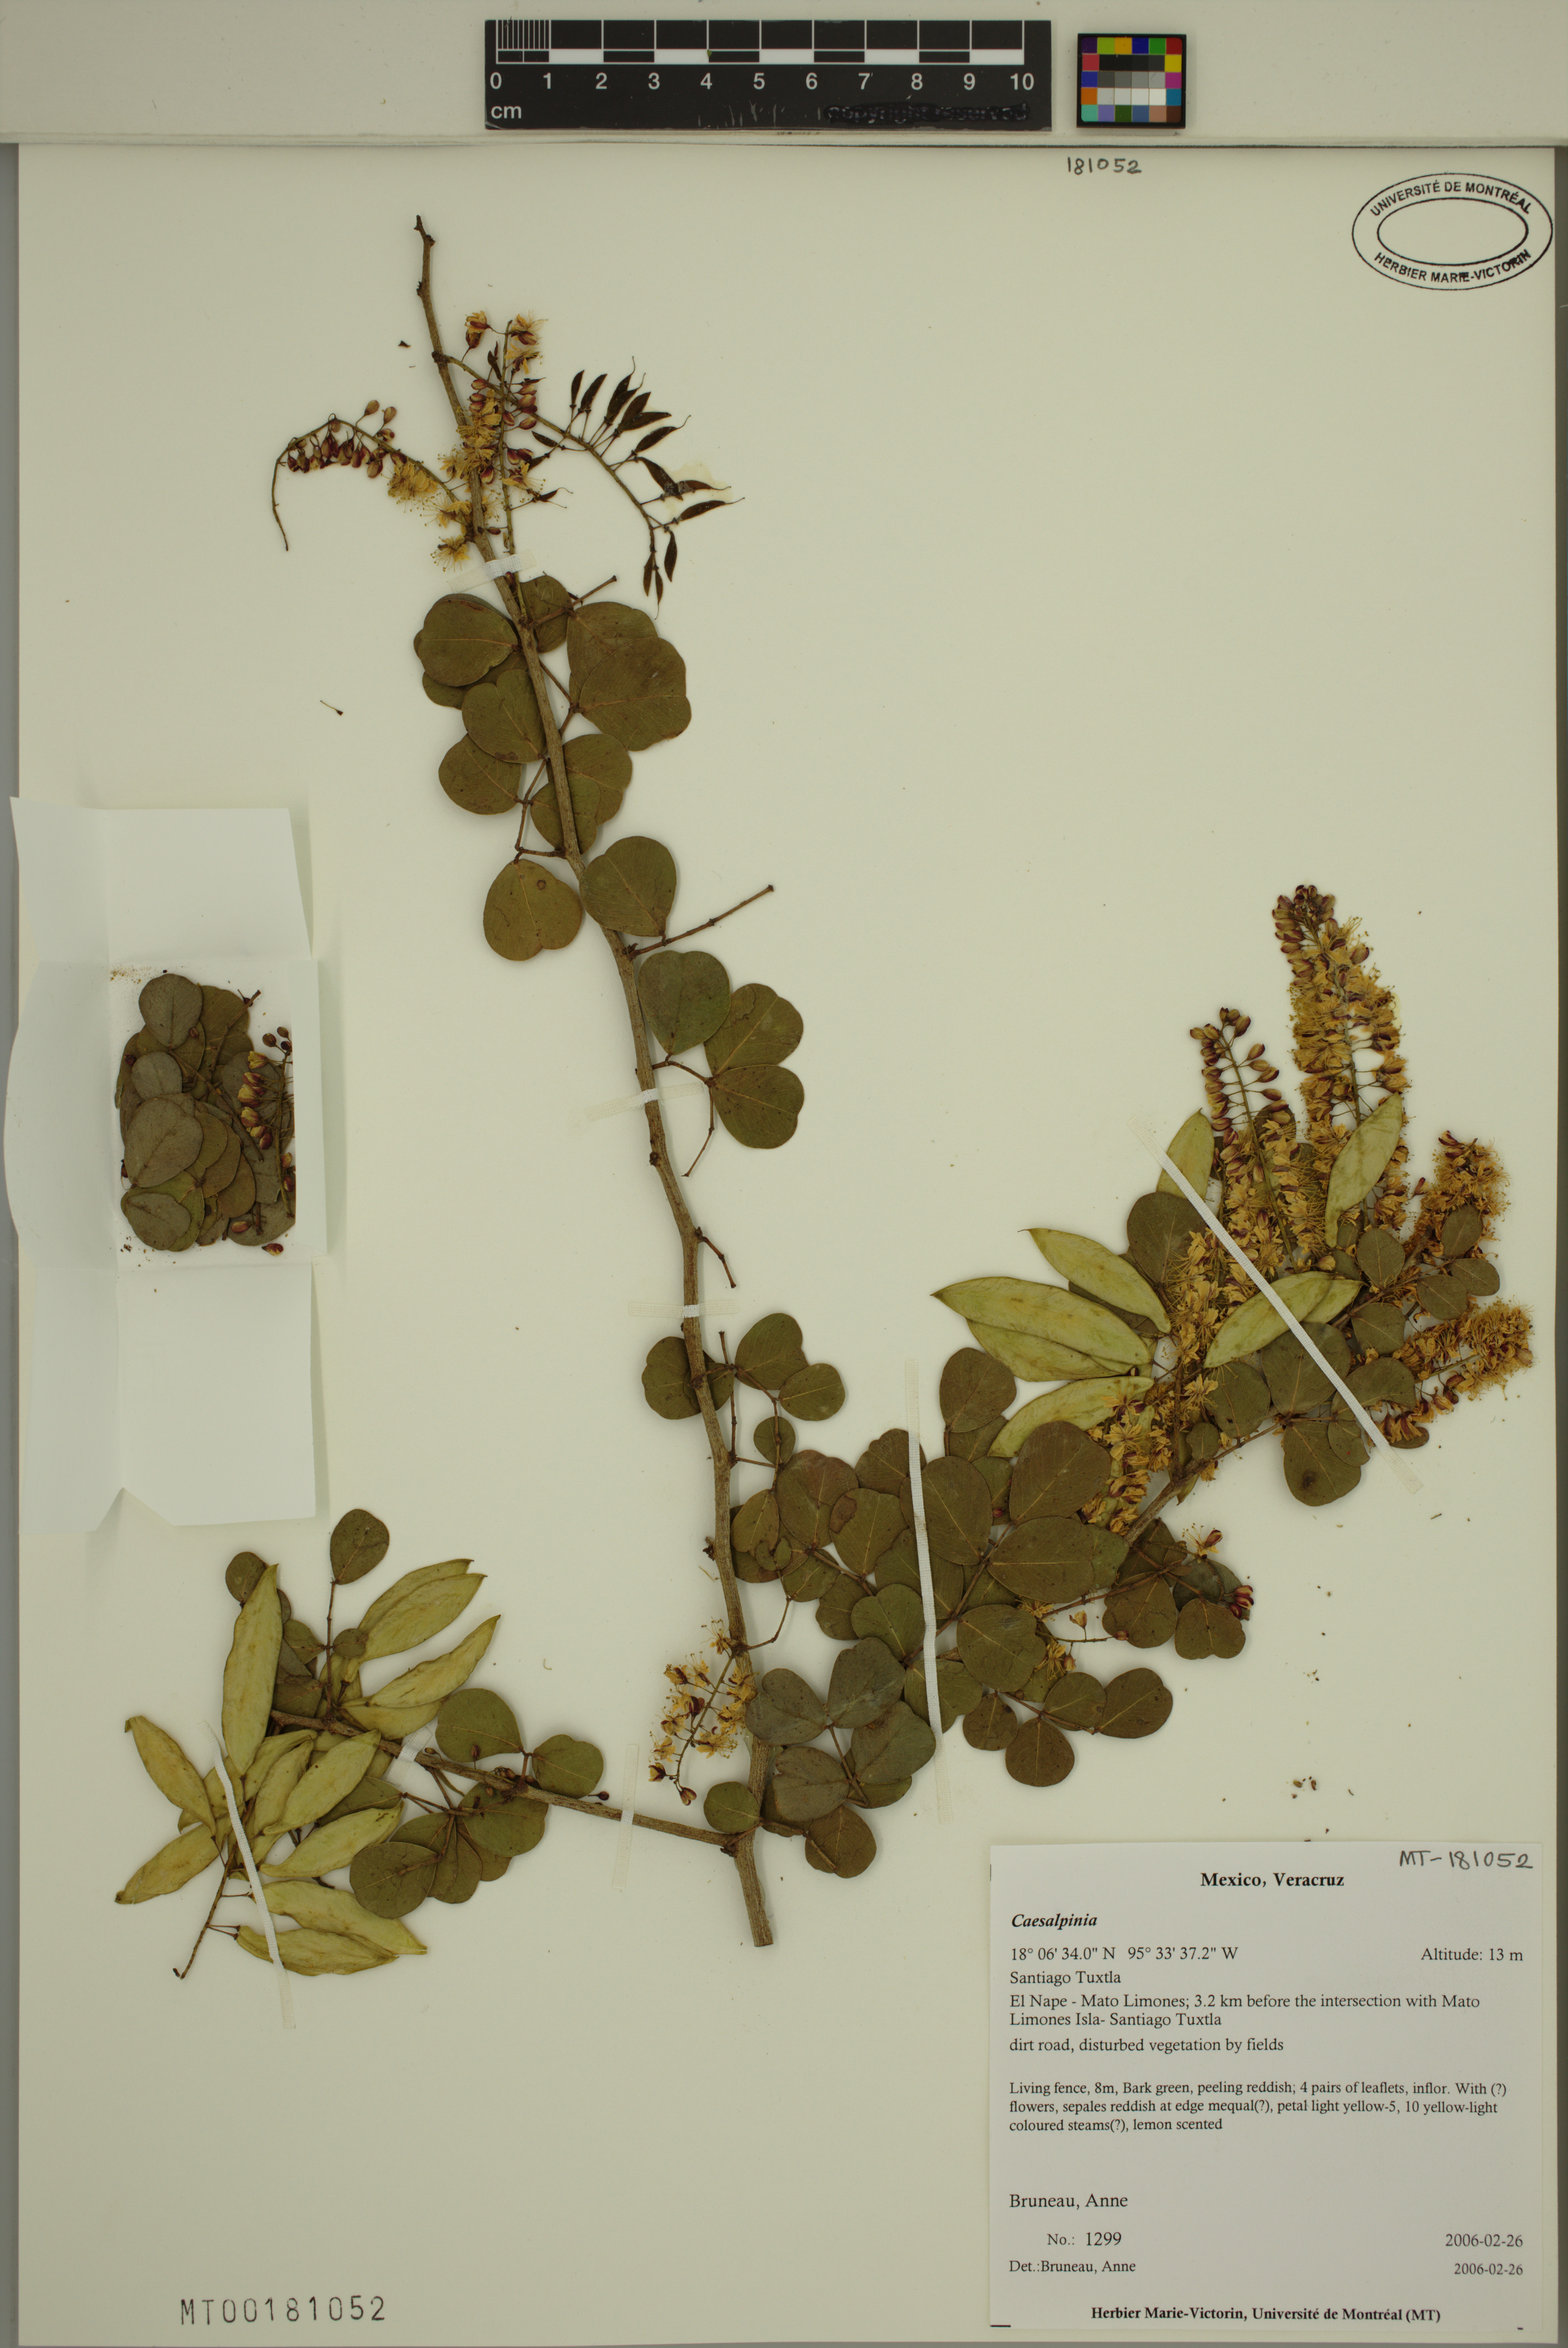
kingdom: Plantae
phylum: Tracheophyta
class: Magnoliopsida
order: Fabales
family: Fabaceae
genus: Caesalpinia
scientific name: Caesalpinia
